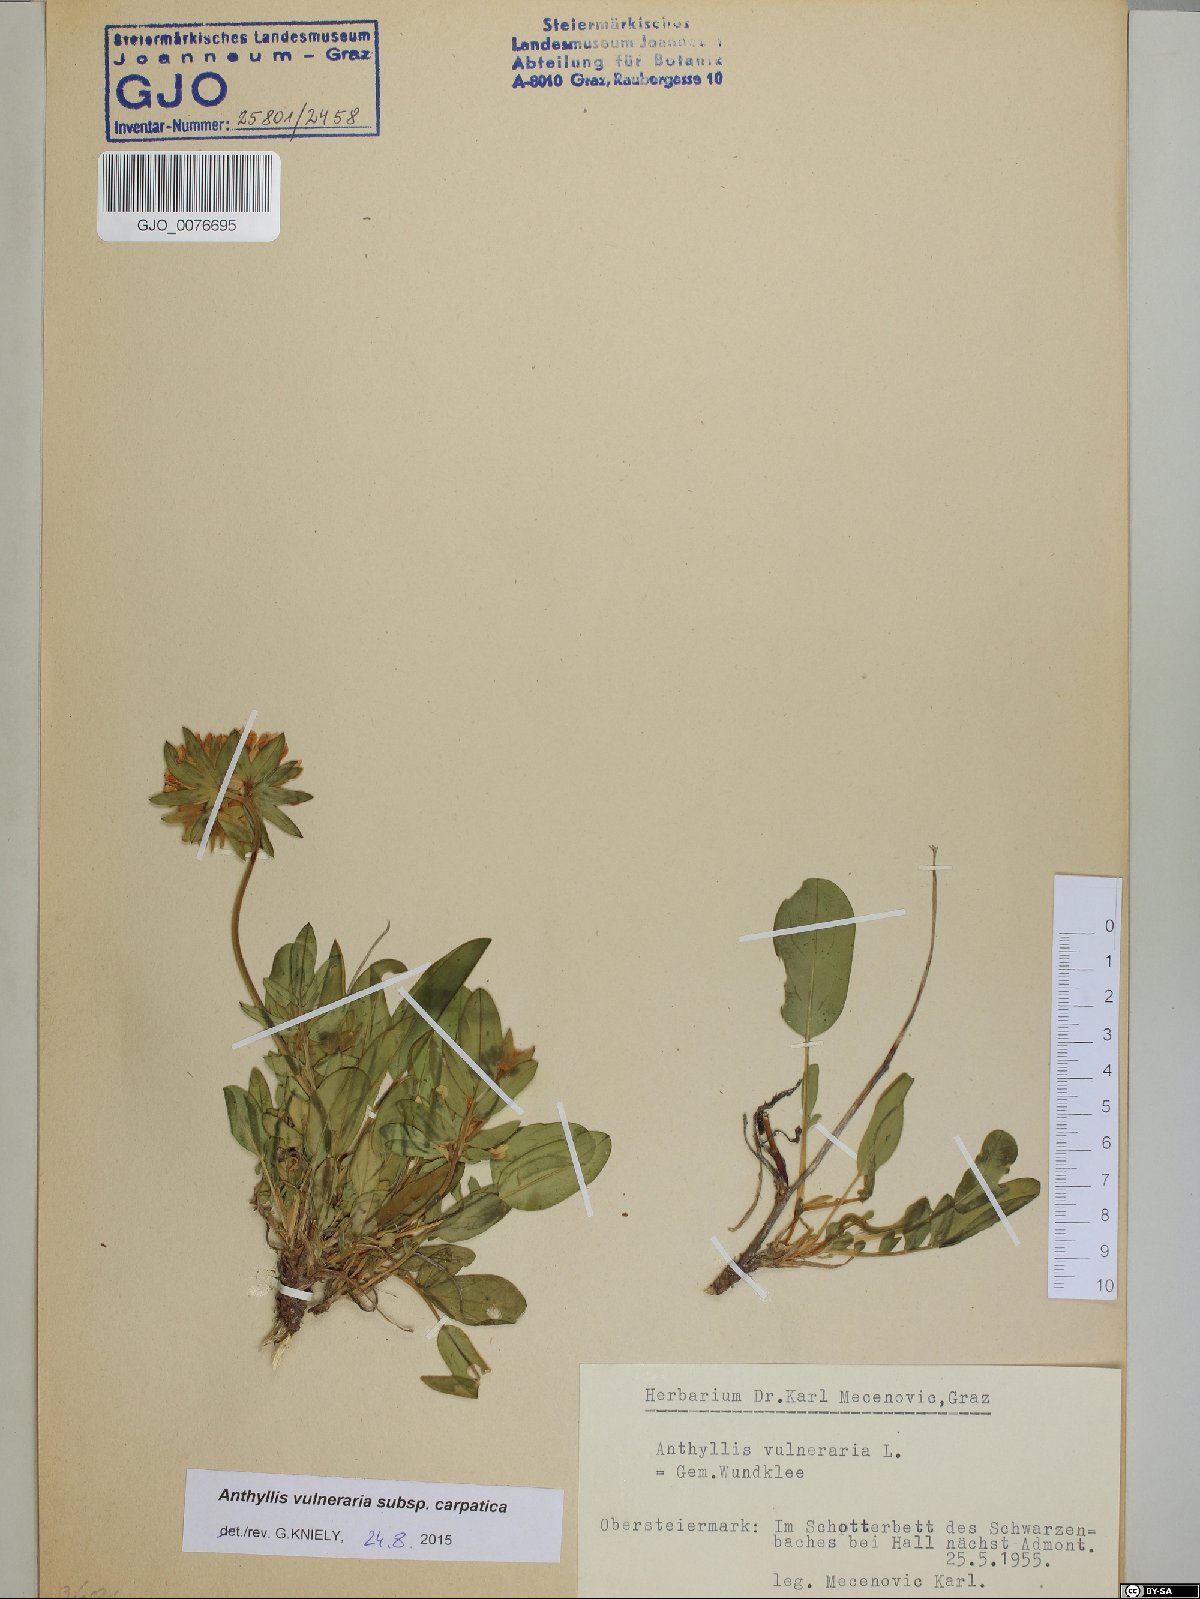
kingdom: Plantae
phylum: Tracheophyta
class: Magnoliopsida
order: Fabales
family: Fabaceae
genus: Anthyllis
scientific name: Anthyllis vulneraria
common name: Kidney vetch
